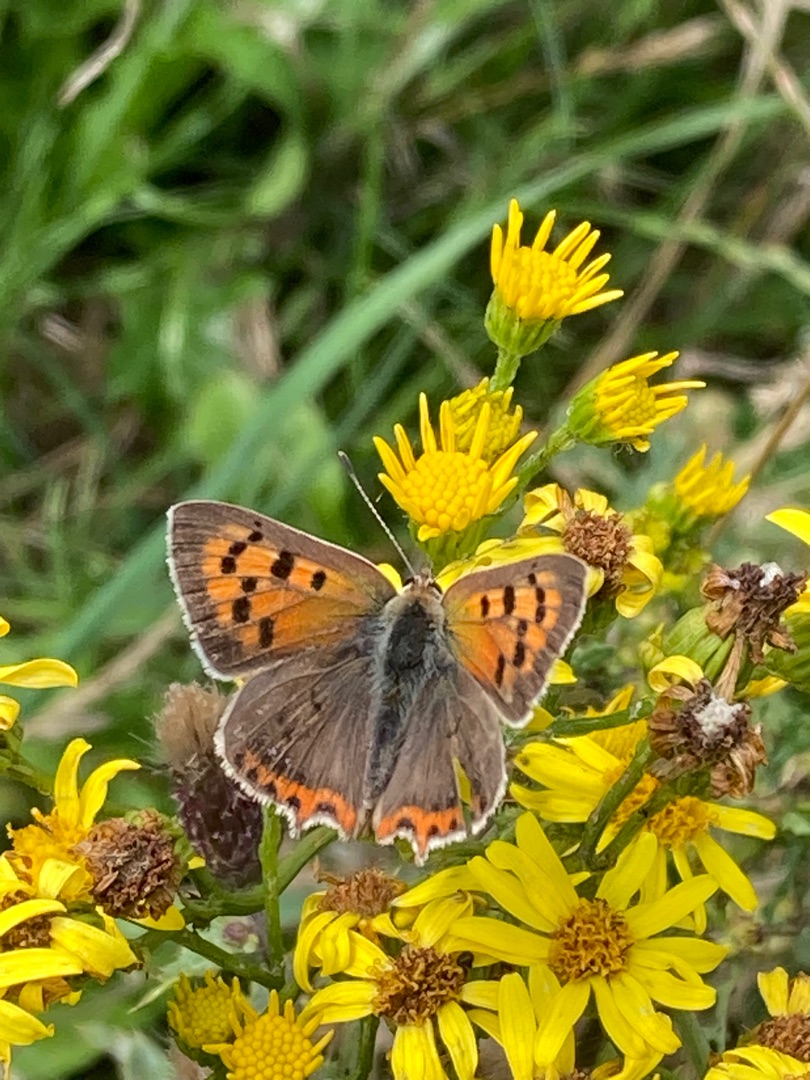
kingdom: Animalia
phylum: Arthropoda
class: Insecta
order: Lepidoptera
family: Lycaenidae
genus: Lycaena
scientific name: Lycaena phlaeas
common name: Lille ildfugl
